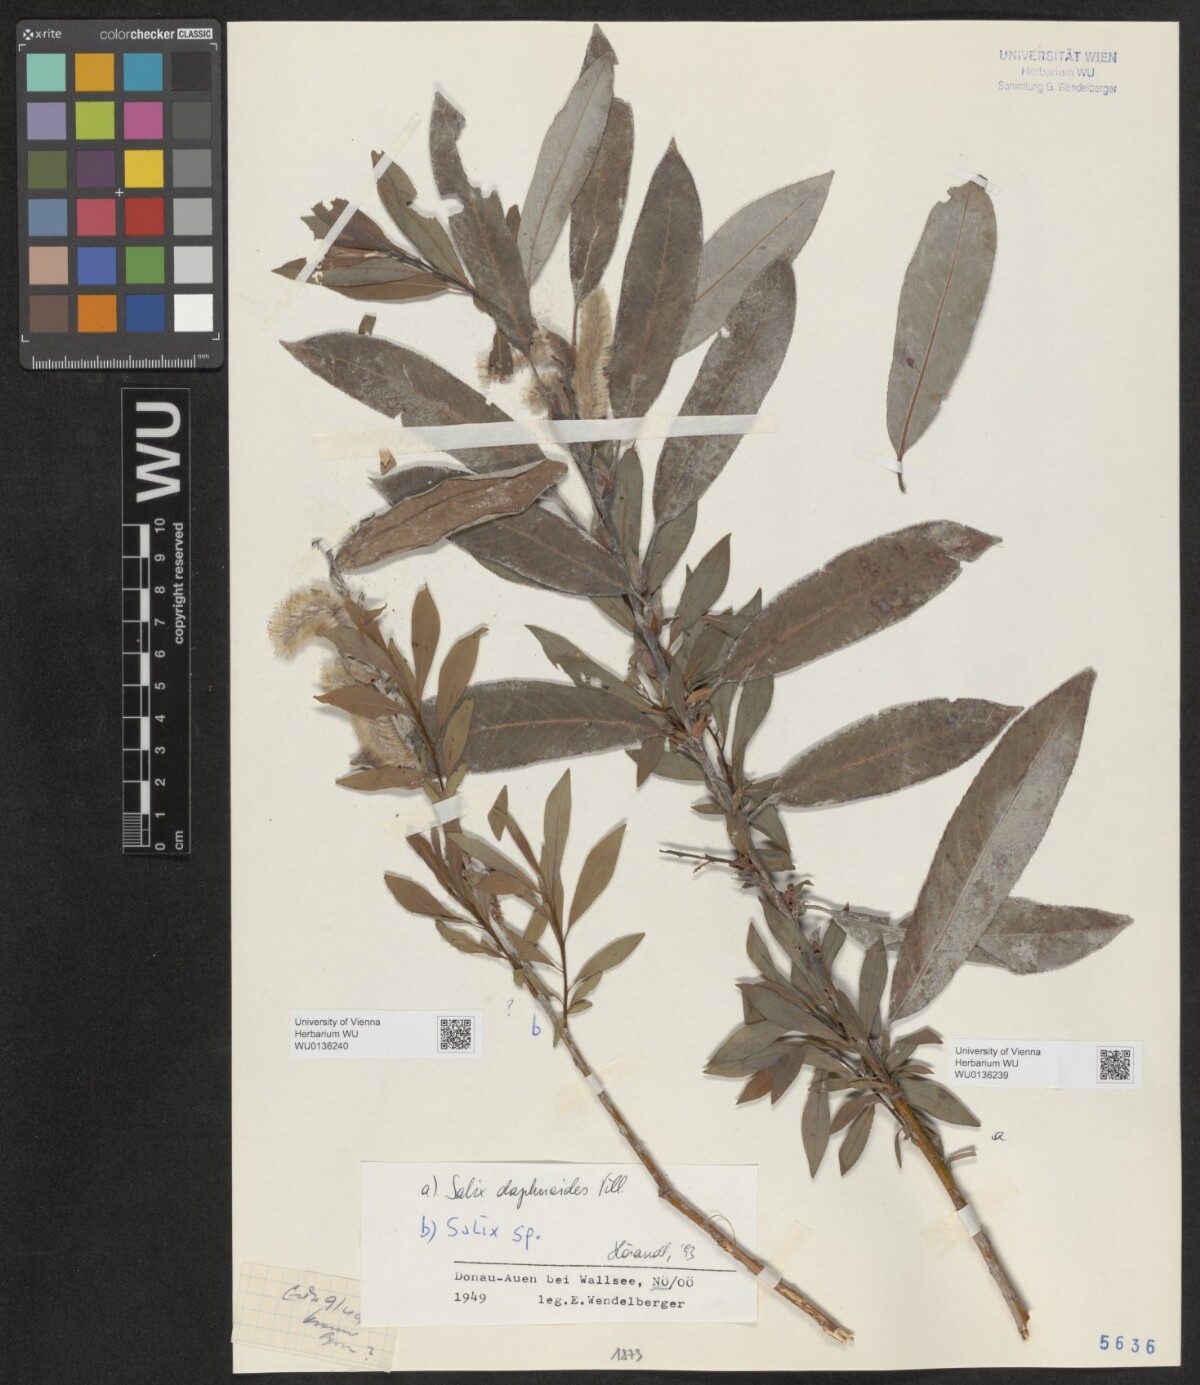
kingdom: Plantae
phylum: Tracheophyta
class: Magnoliopsida
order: Malpighiales
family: Salicaceae
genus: Salix
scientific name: Salix daphnoides
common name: European violet-willow
